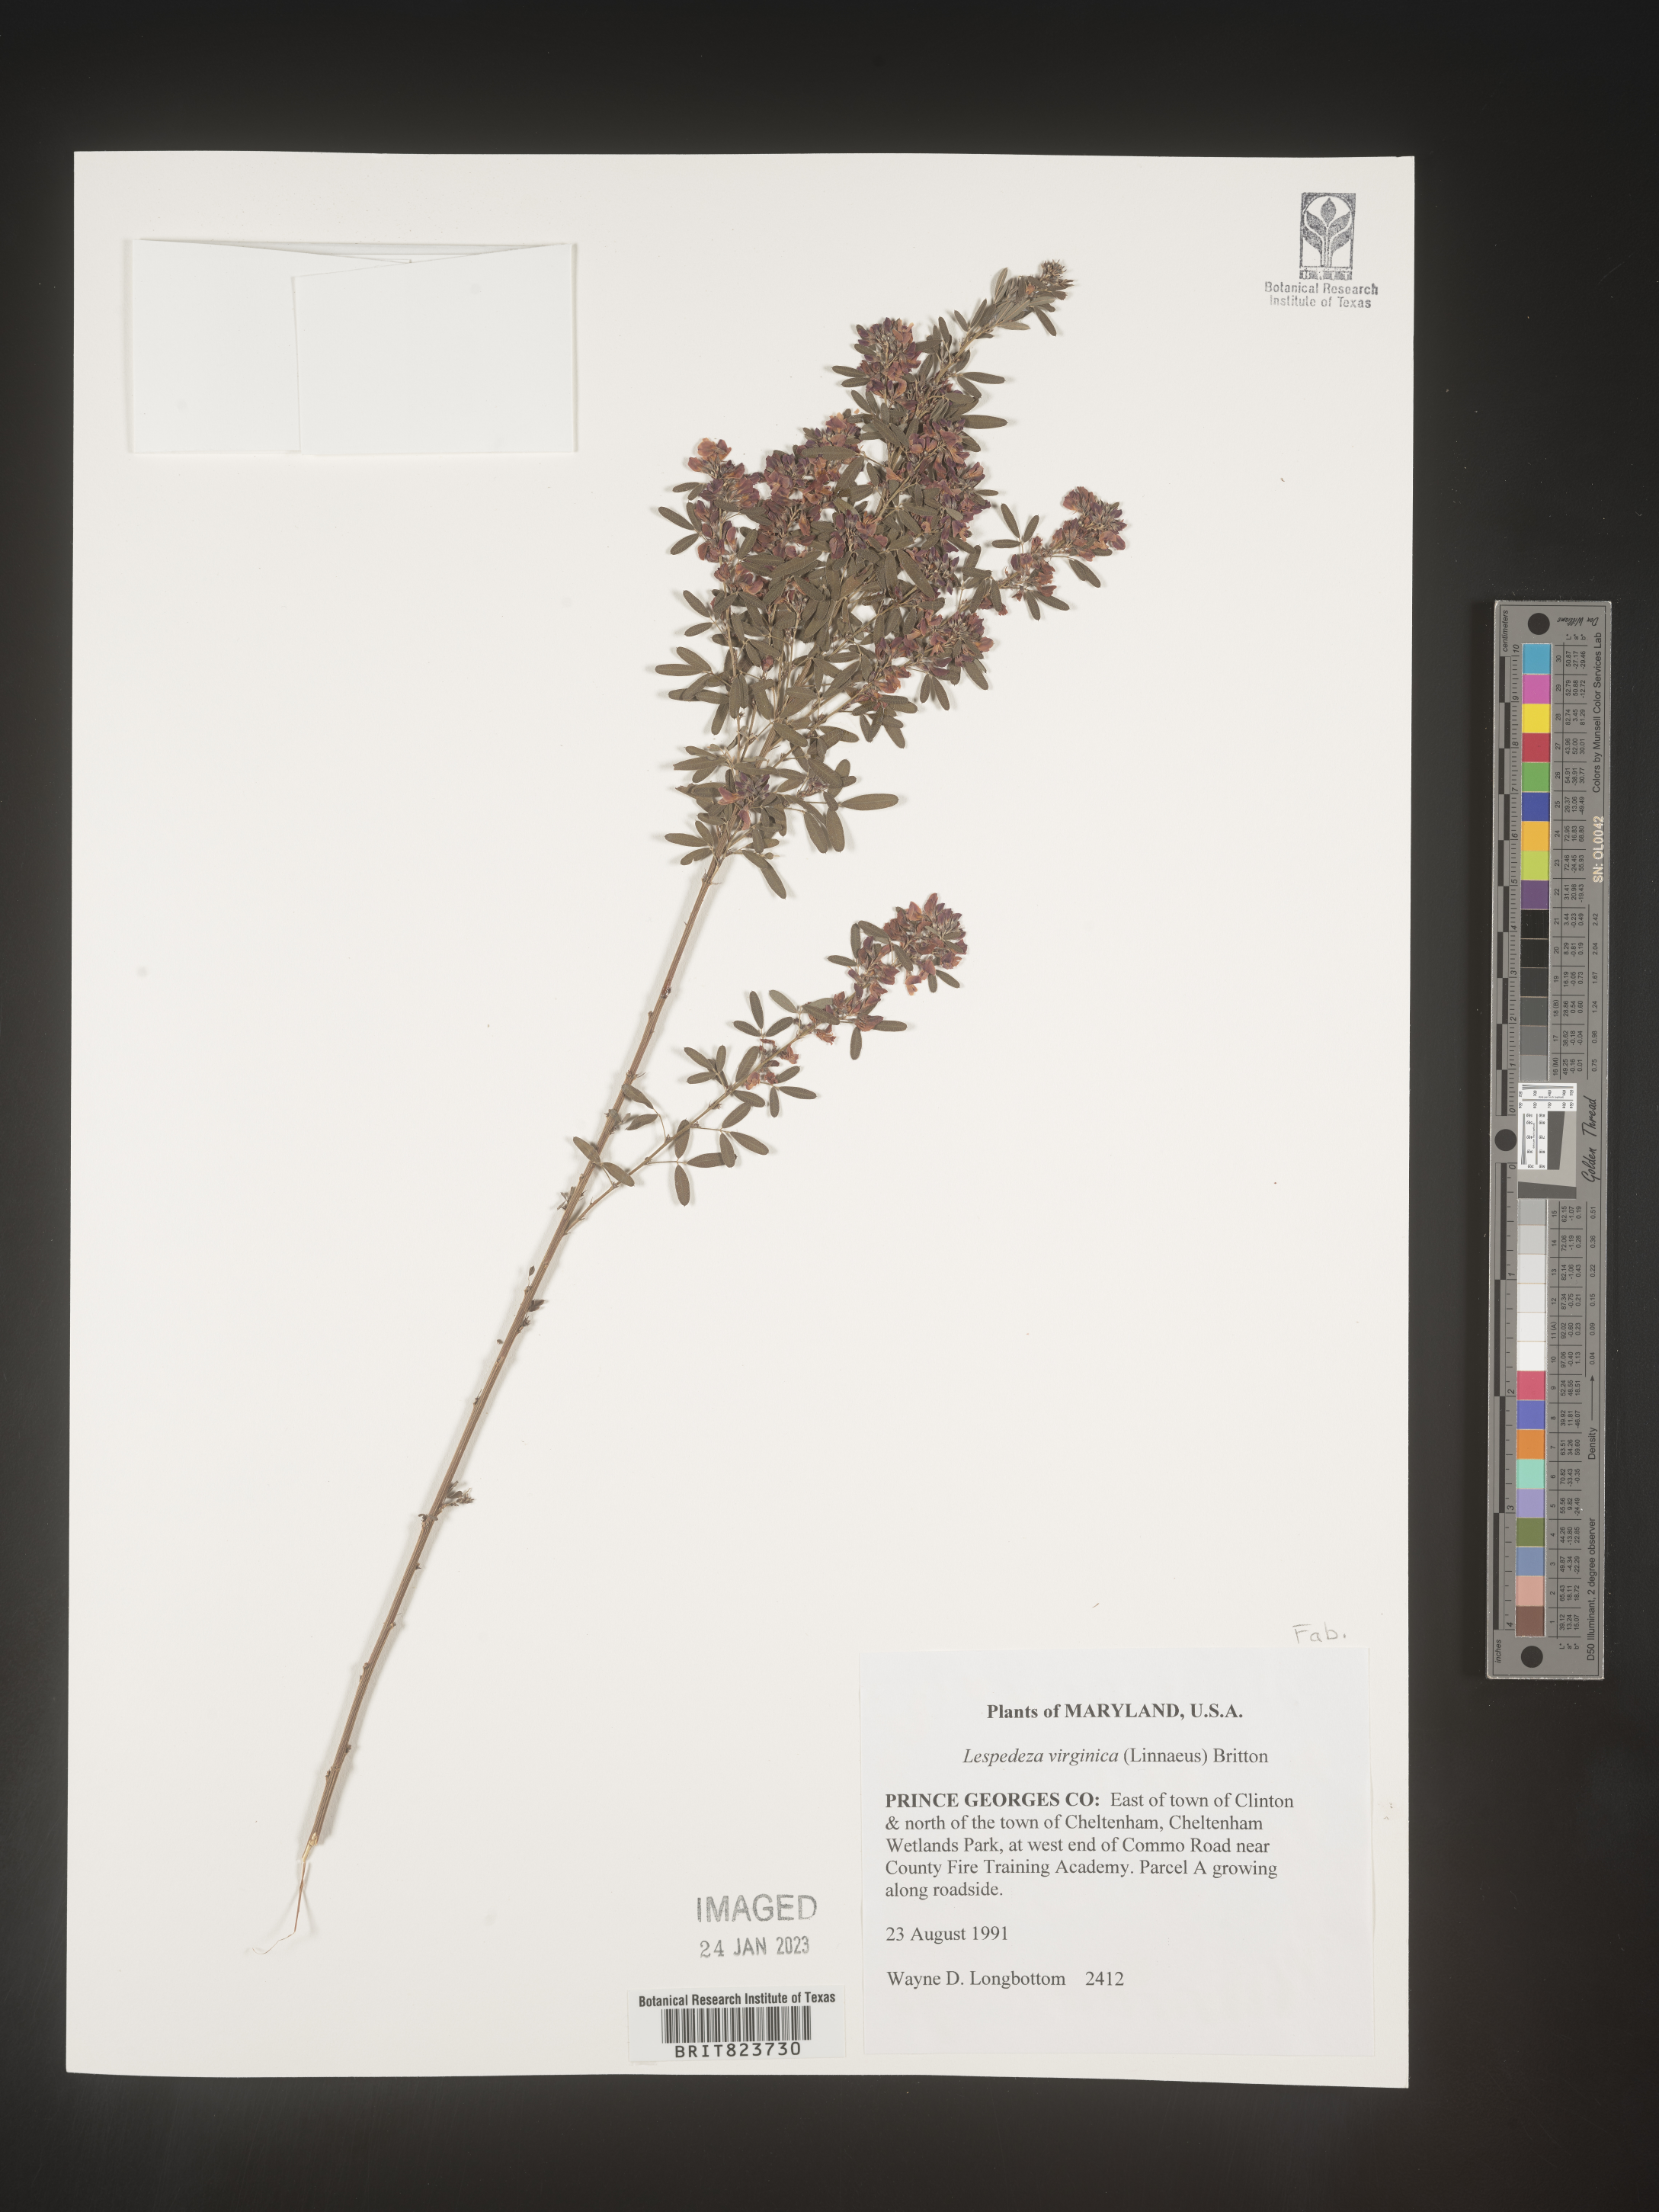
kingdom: Plantae
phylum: Tracheophyta
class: Magnoliopsida
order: Fabales
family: Fabaceae
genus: Lespedeza
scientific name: Lespedeza virginica
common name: Slender bush-clover
